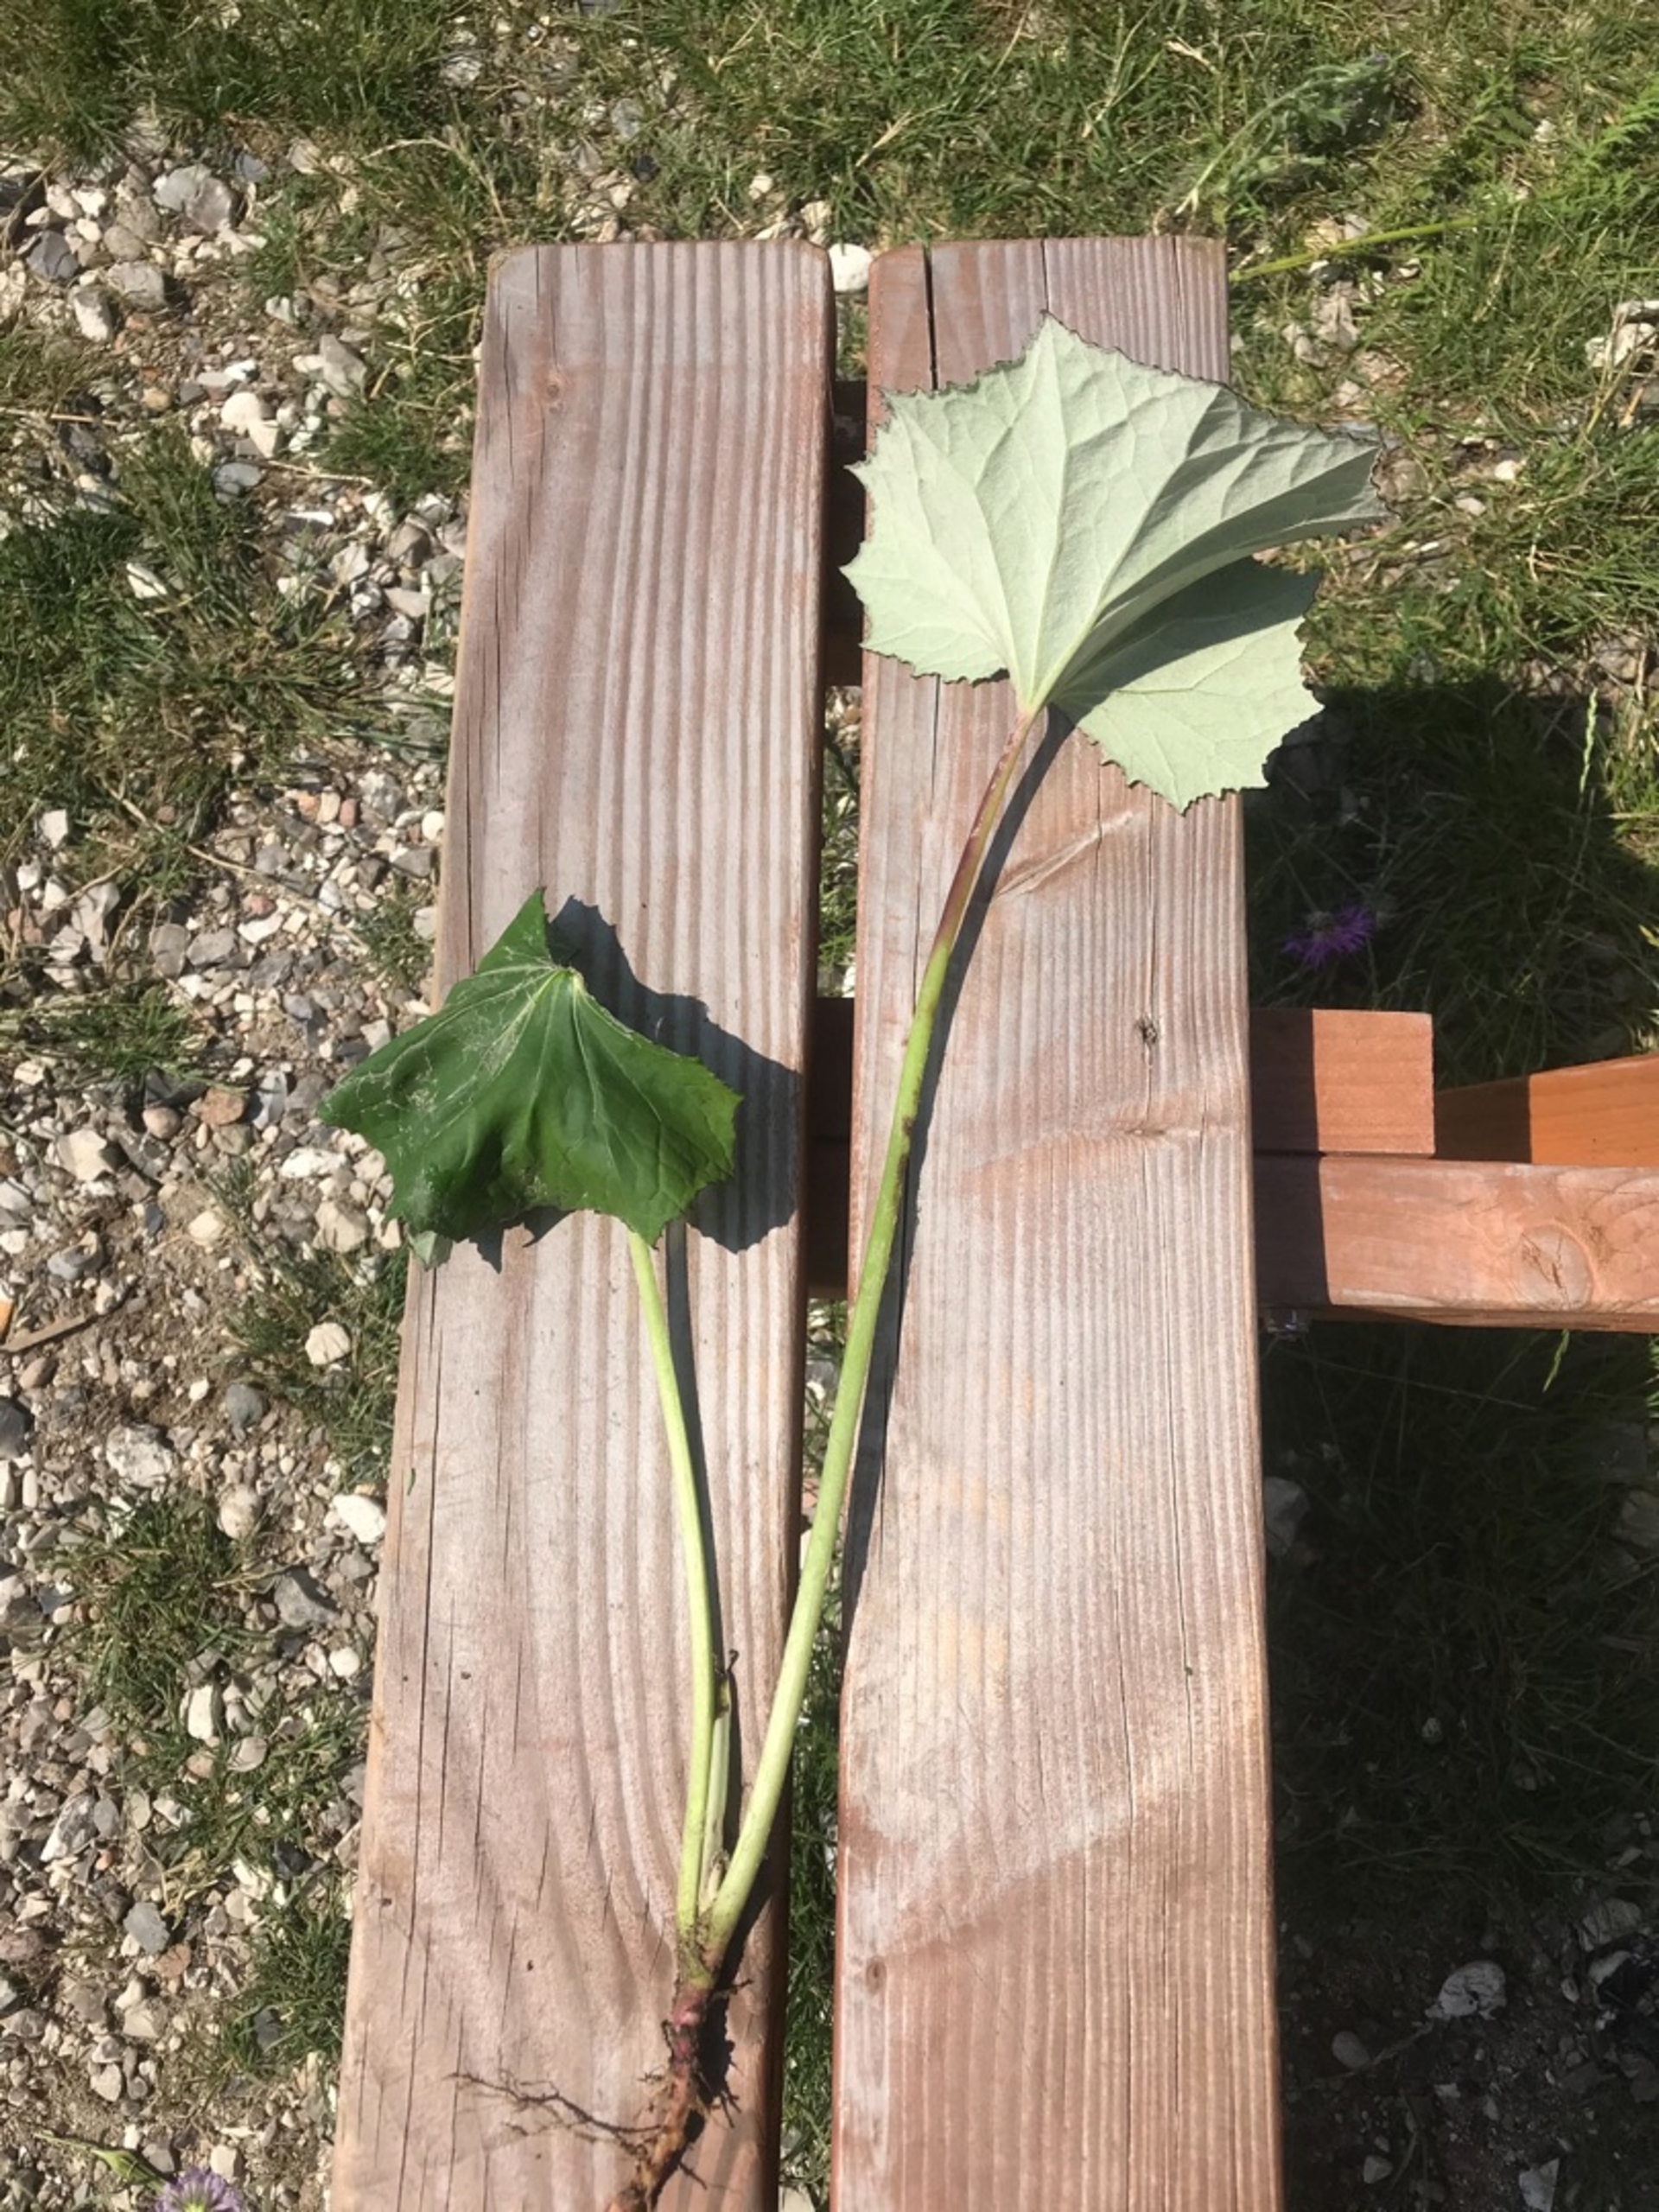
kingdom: Plantae
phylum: Tracheophyta
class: Magnoliopsida
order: Asterales
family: Asteraceae
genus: Tussilago
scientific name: Tussilago farfara
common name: Følfod
